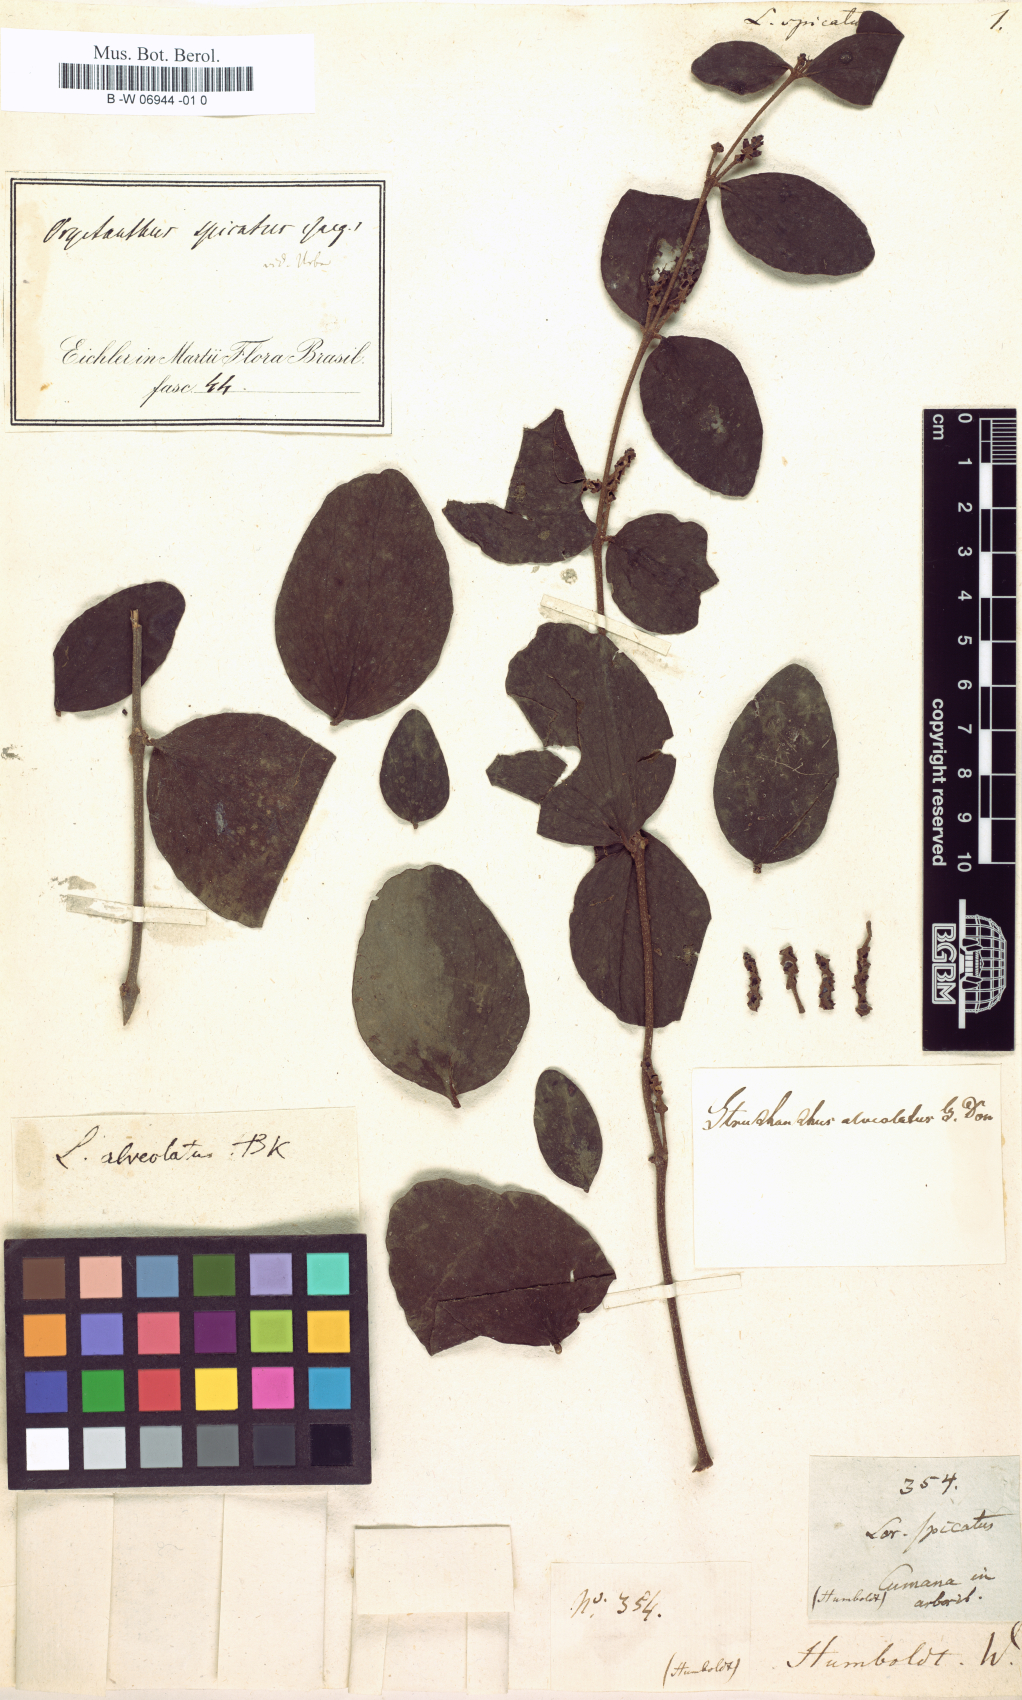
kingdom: Plantae
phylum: Tracheophyta
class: Magnoliopsida
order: Santalales
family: Loranthaceae
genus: Oryctanthus
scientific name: Oryctanthus spicatus
